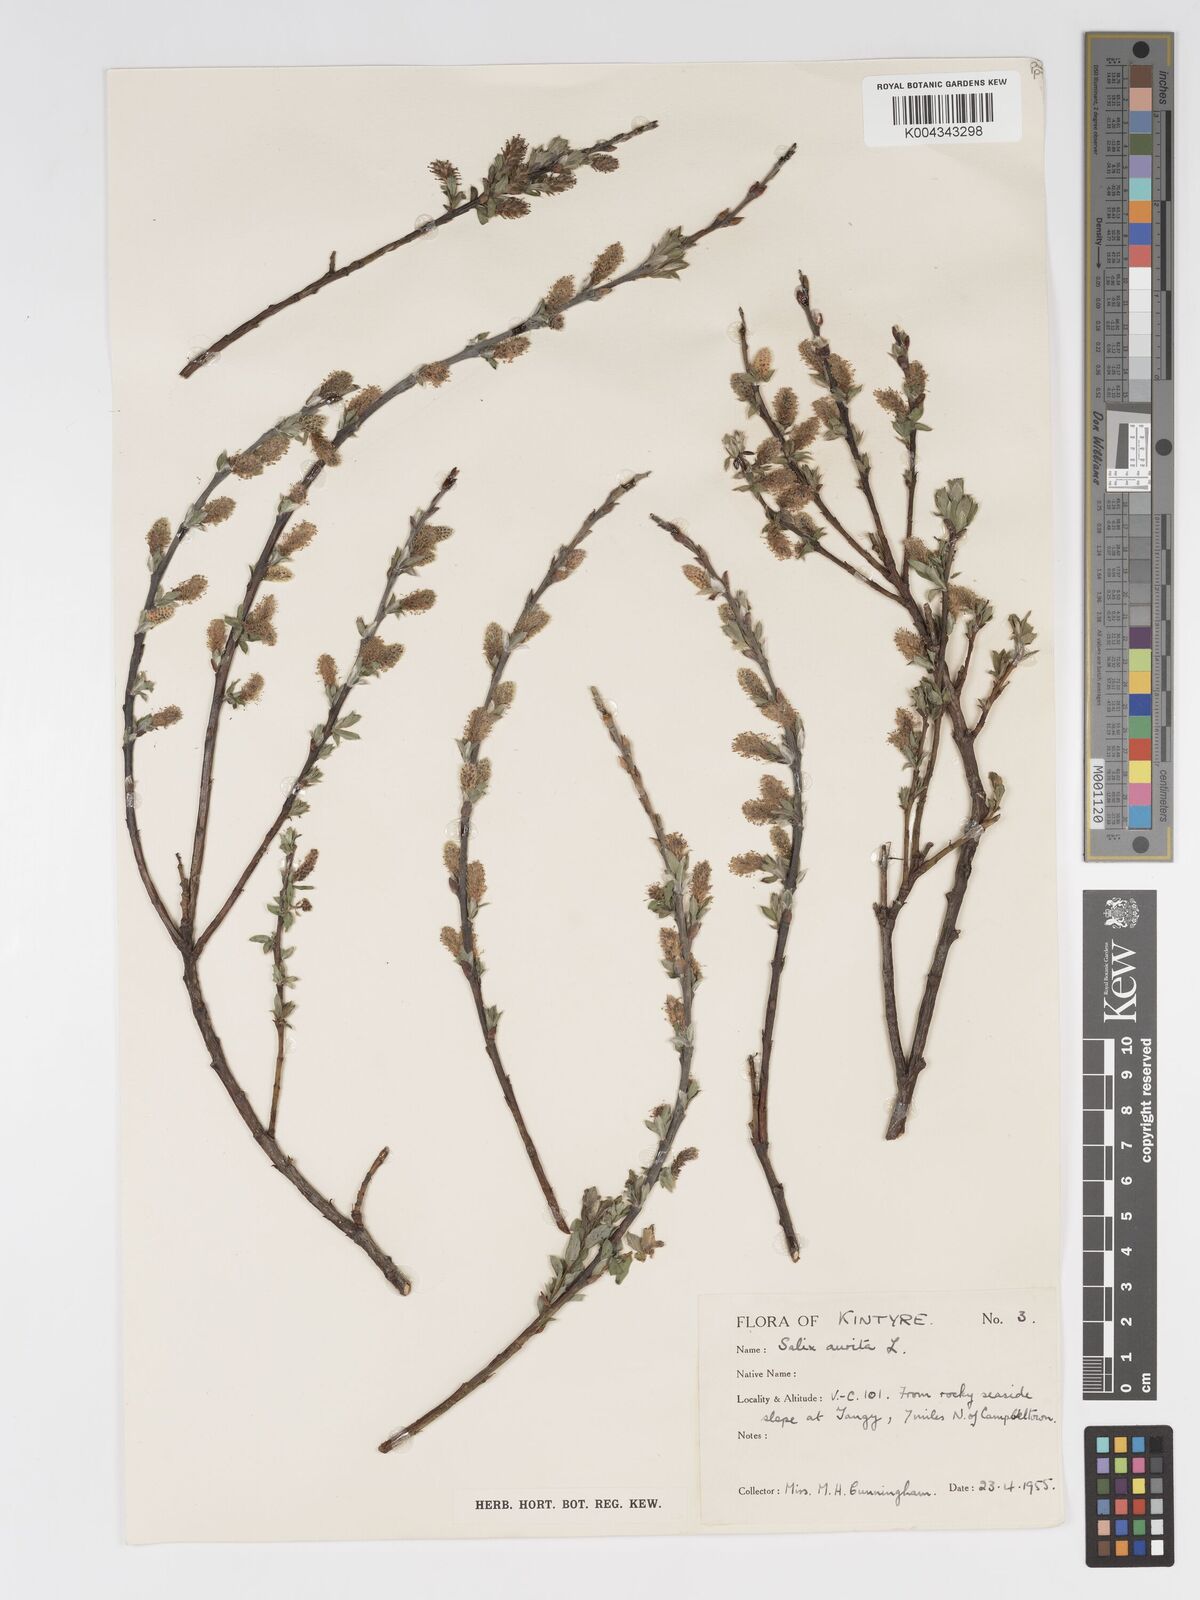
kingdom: Plantae
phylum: Tracheophyta
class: Magnoliopsida
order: Malpighiales
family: Salicaceae
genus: Salix
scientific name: Salix aurita
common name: Eared willow
